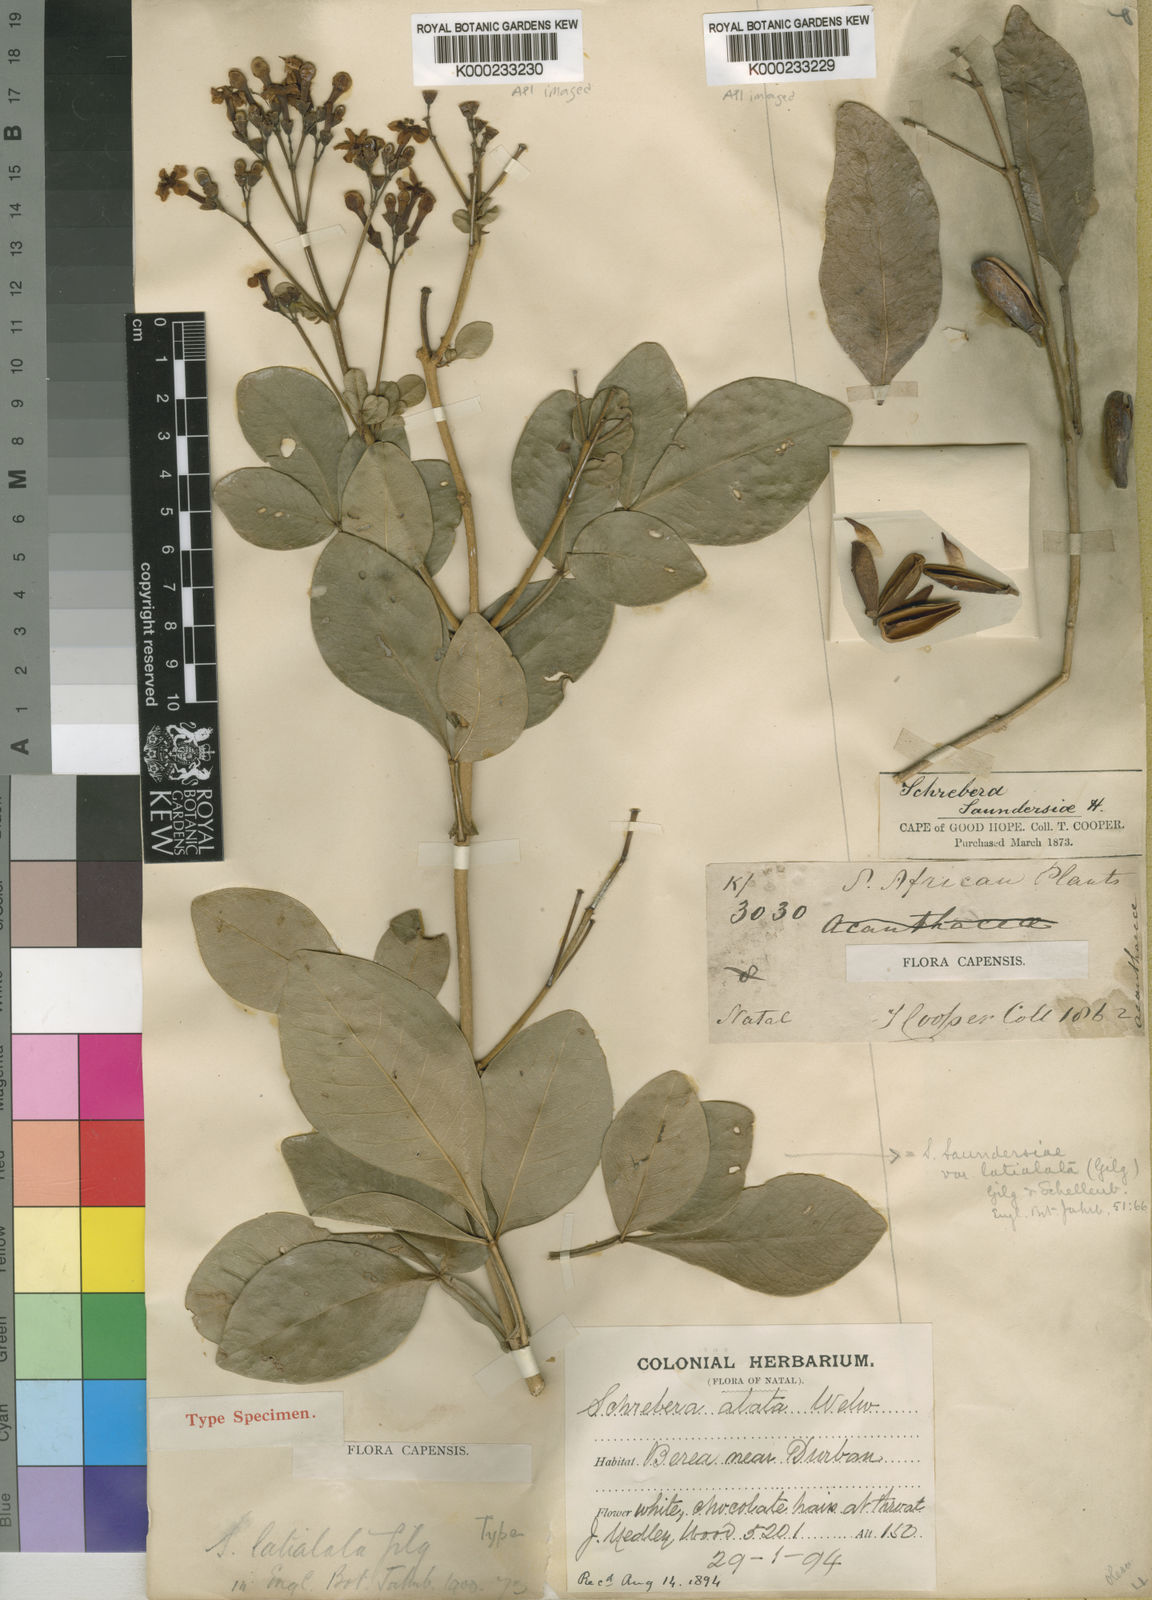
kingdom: Plantae
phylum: Tracheophyta
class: Magnoliopsida
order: Lamiales
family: Oleaceae
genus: Schrebera
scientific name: Schrebera alata
